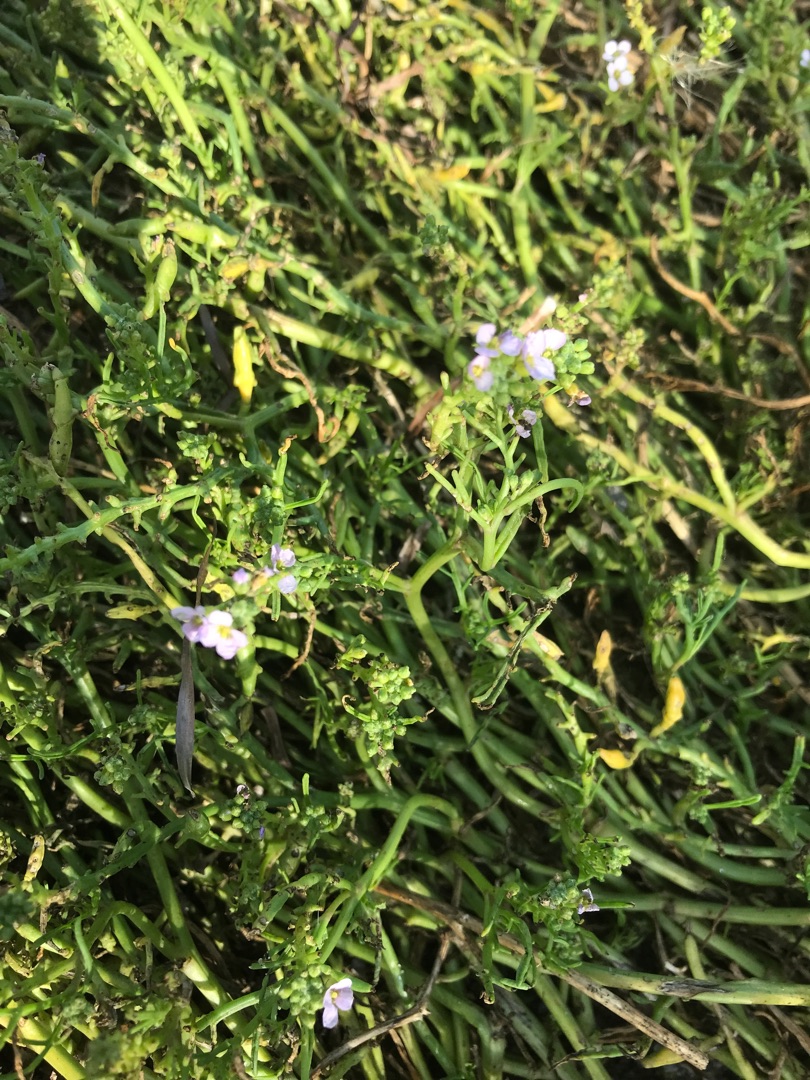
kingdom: Plantae
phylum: Tracheophyta
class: Magnoliopsida
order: Brassicales
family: Brassicaceae
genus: Cakile
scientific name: Cakile maritima
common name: Strandsennep
